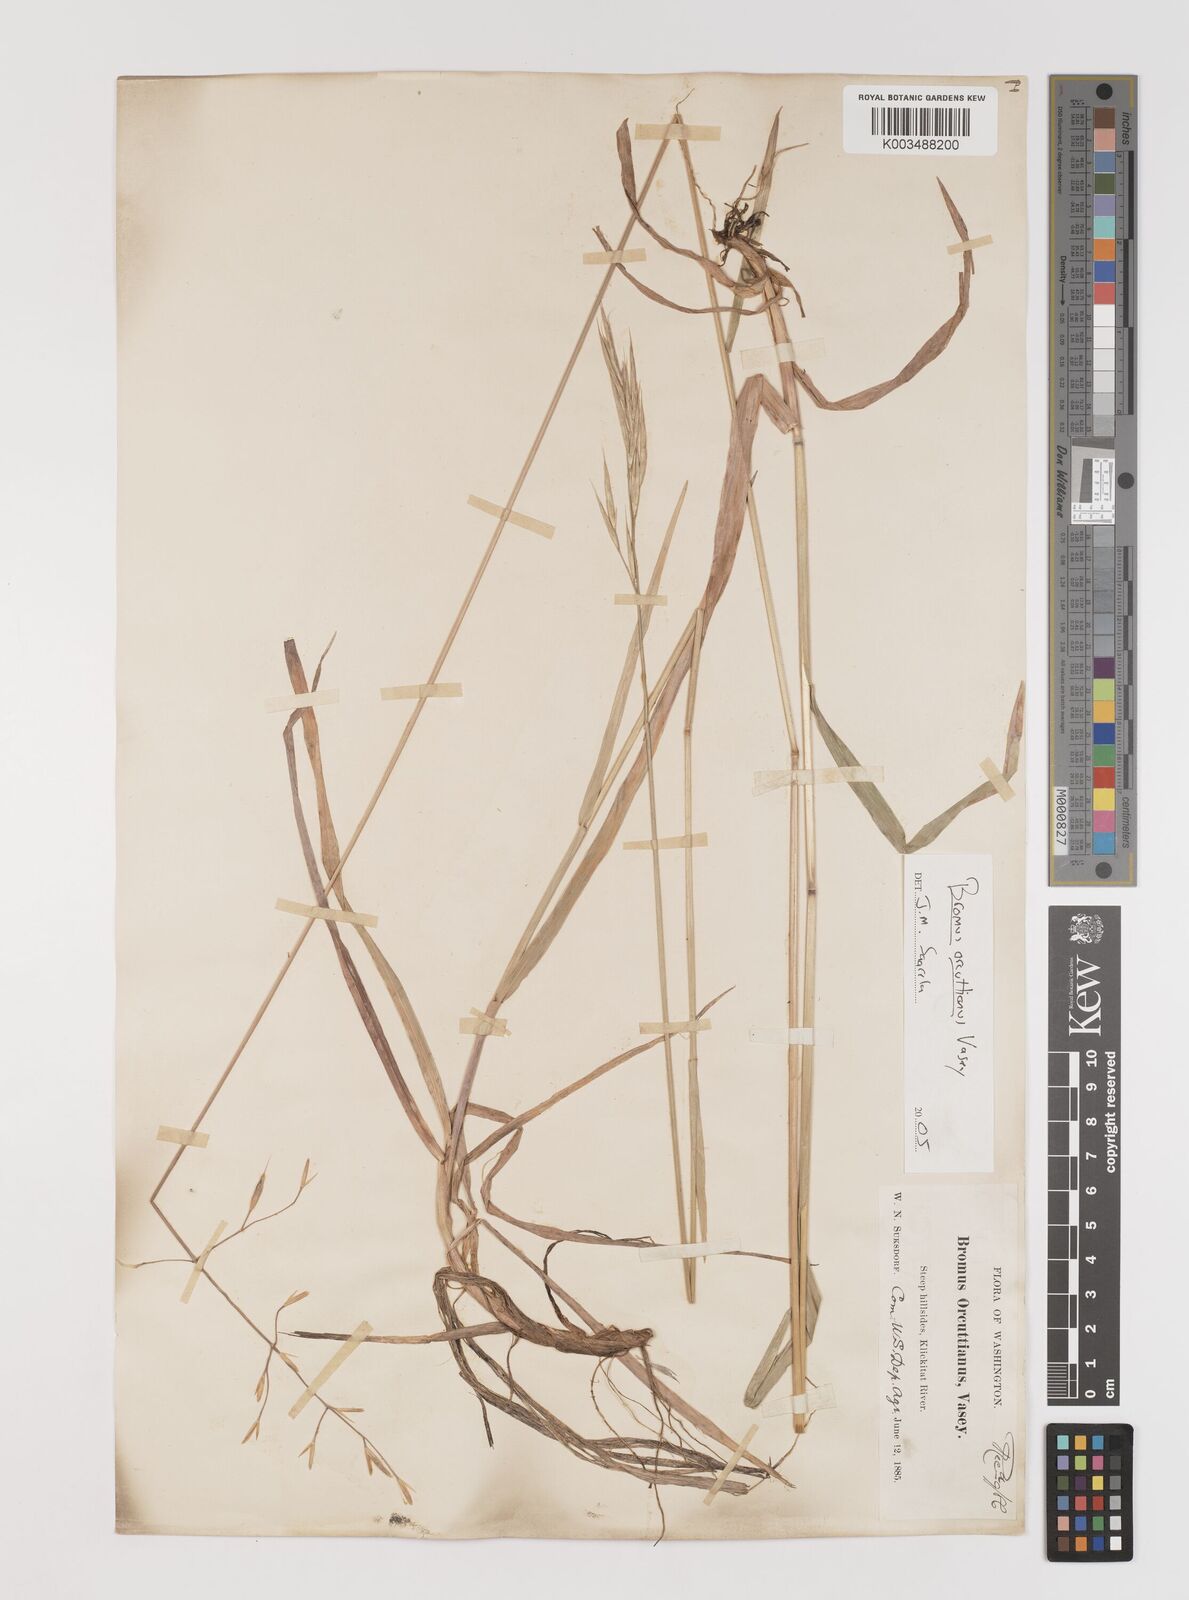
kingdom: Plantae
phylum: Tracheophyta
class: Liliopsida
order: Poales
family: Poaceae
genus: Bromus
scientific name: Bromus orcuttianus
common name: Orcutt's brome
